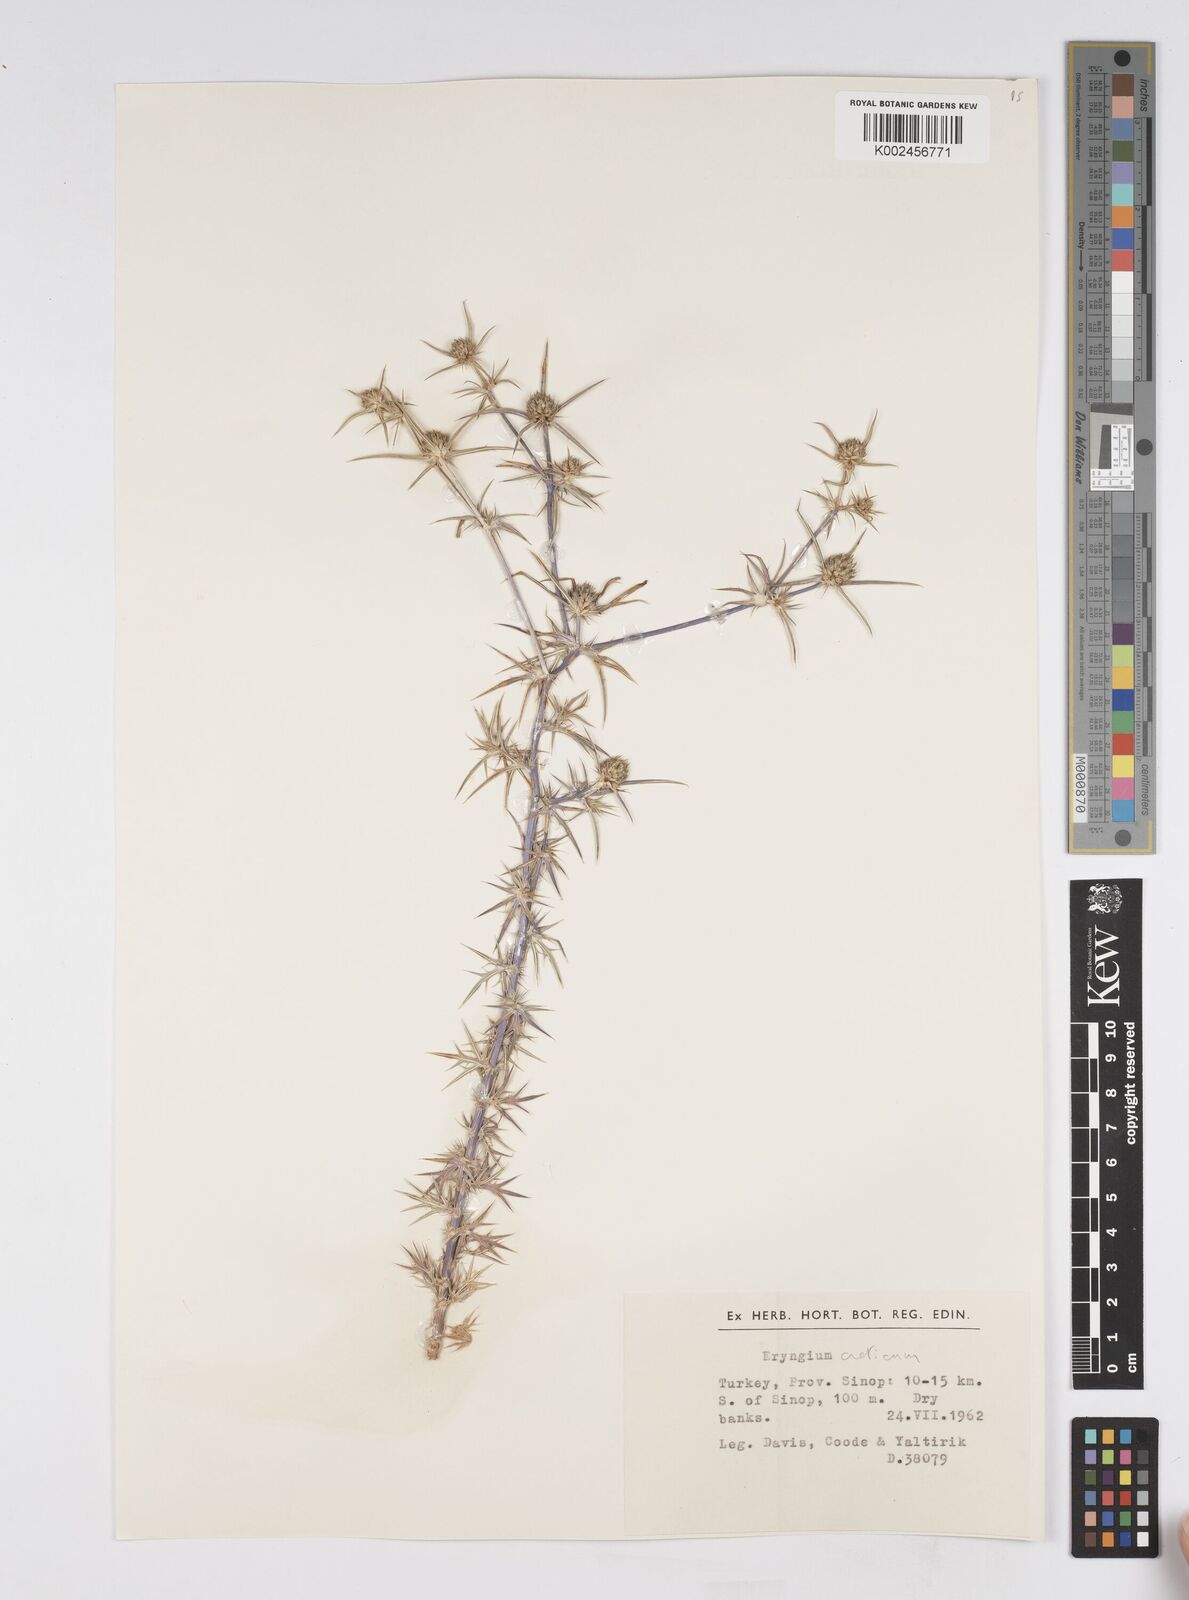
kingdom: Plantae
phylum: Tracheophyta
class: Magnoliopsida
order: Apiales
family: Apiaceae
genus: Eryngium
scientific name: Eryngium creticum
